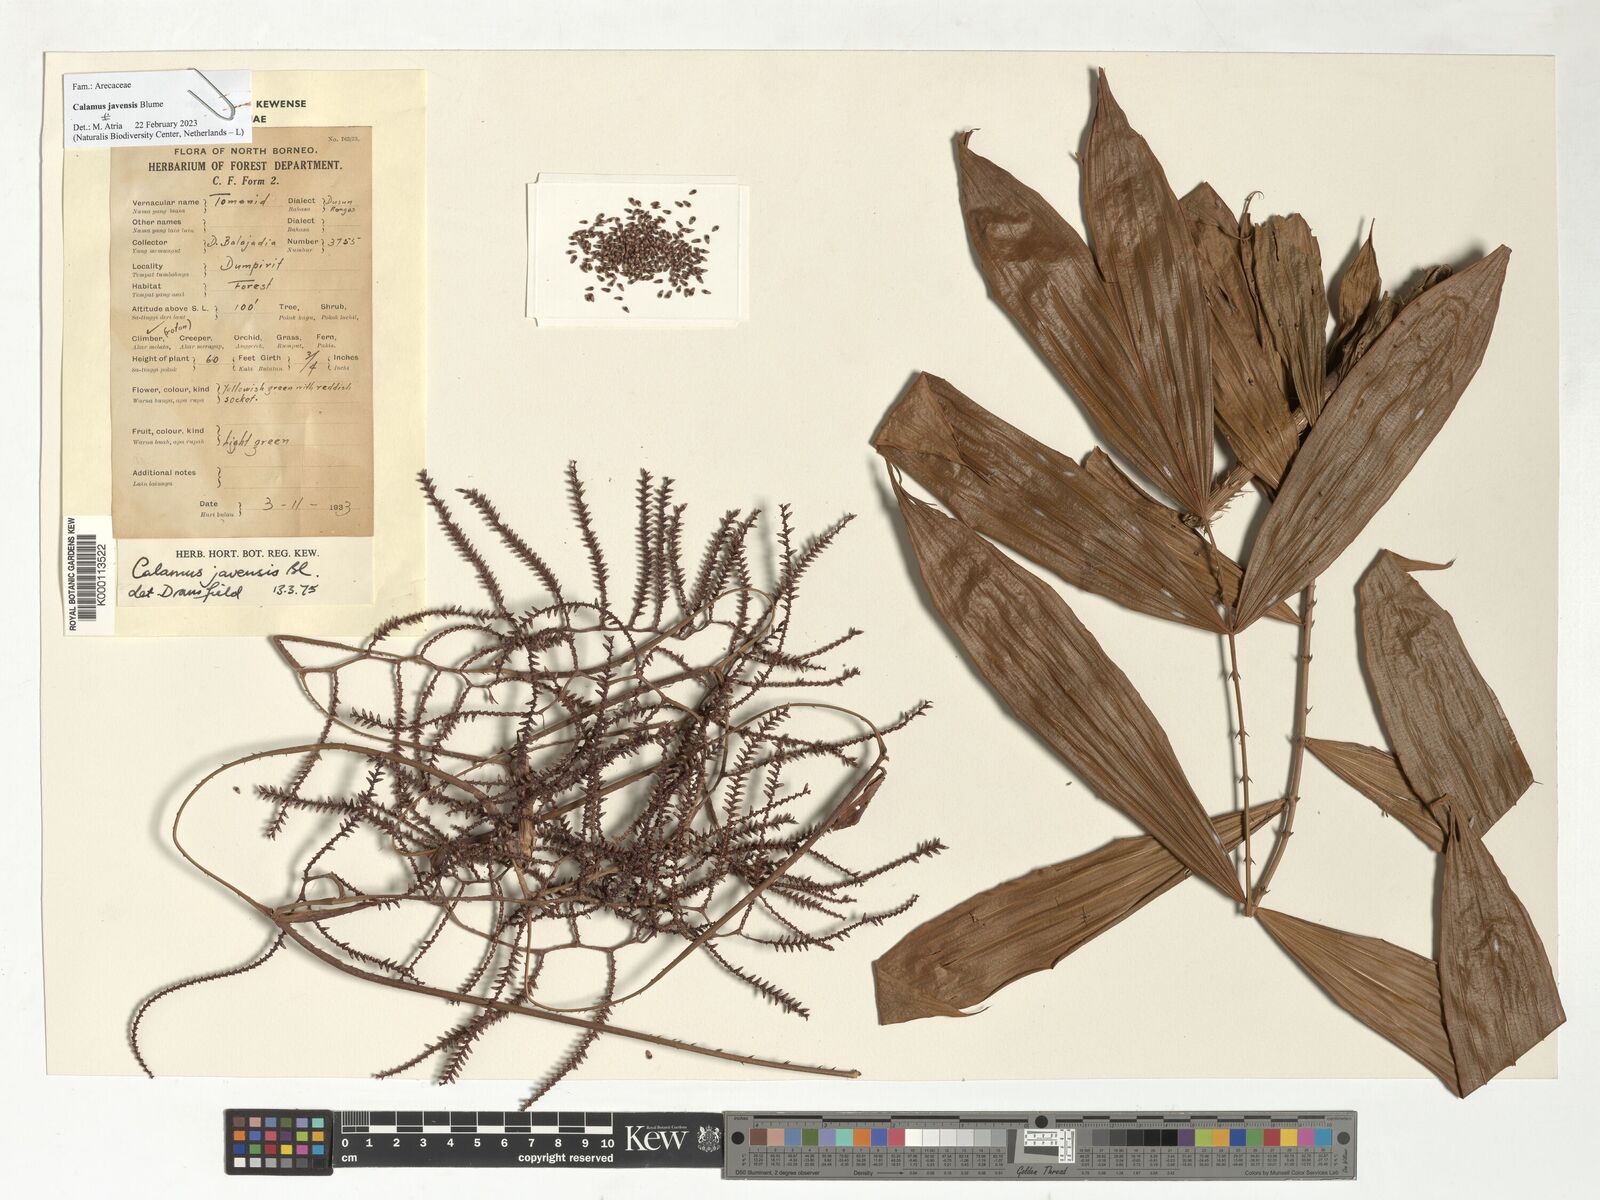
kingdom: Plantae
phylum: Tracheophyta
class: Liliopsida
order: Arecales
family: Arecaceae
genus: Calamus
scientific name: Calamus javensis
